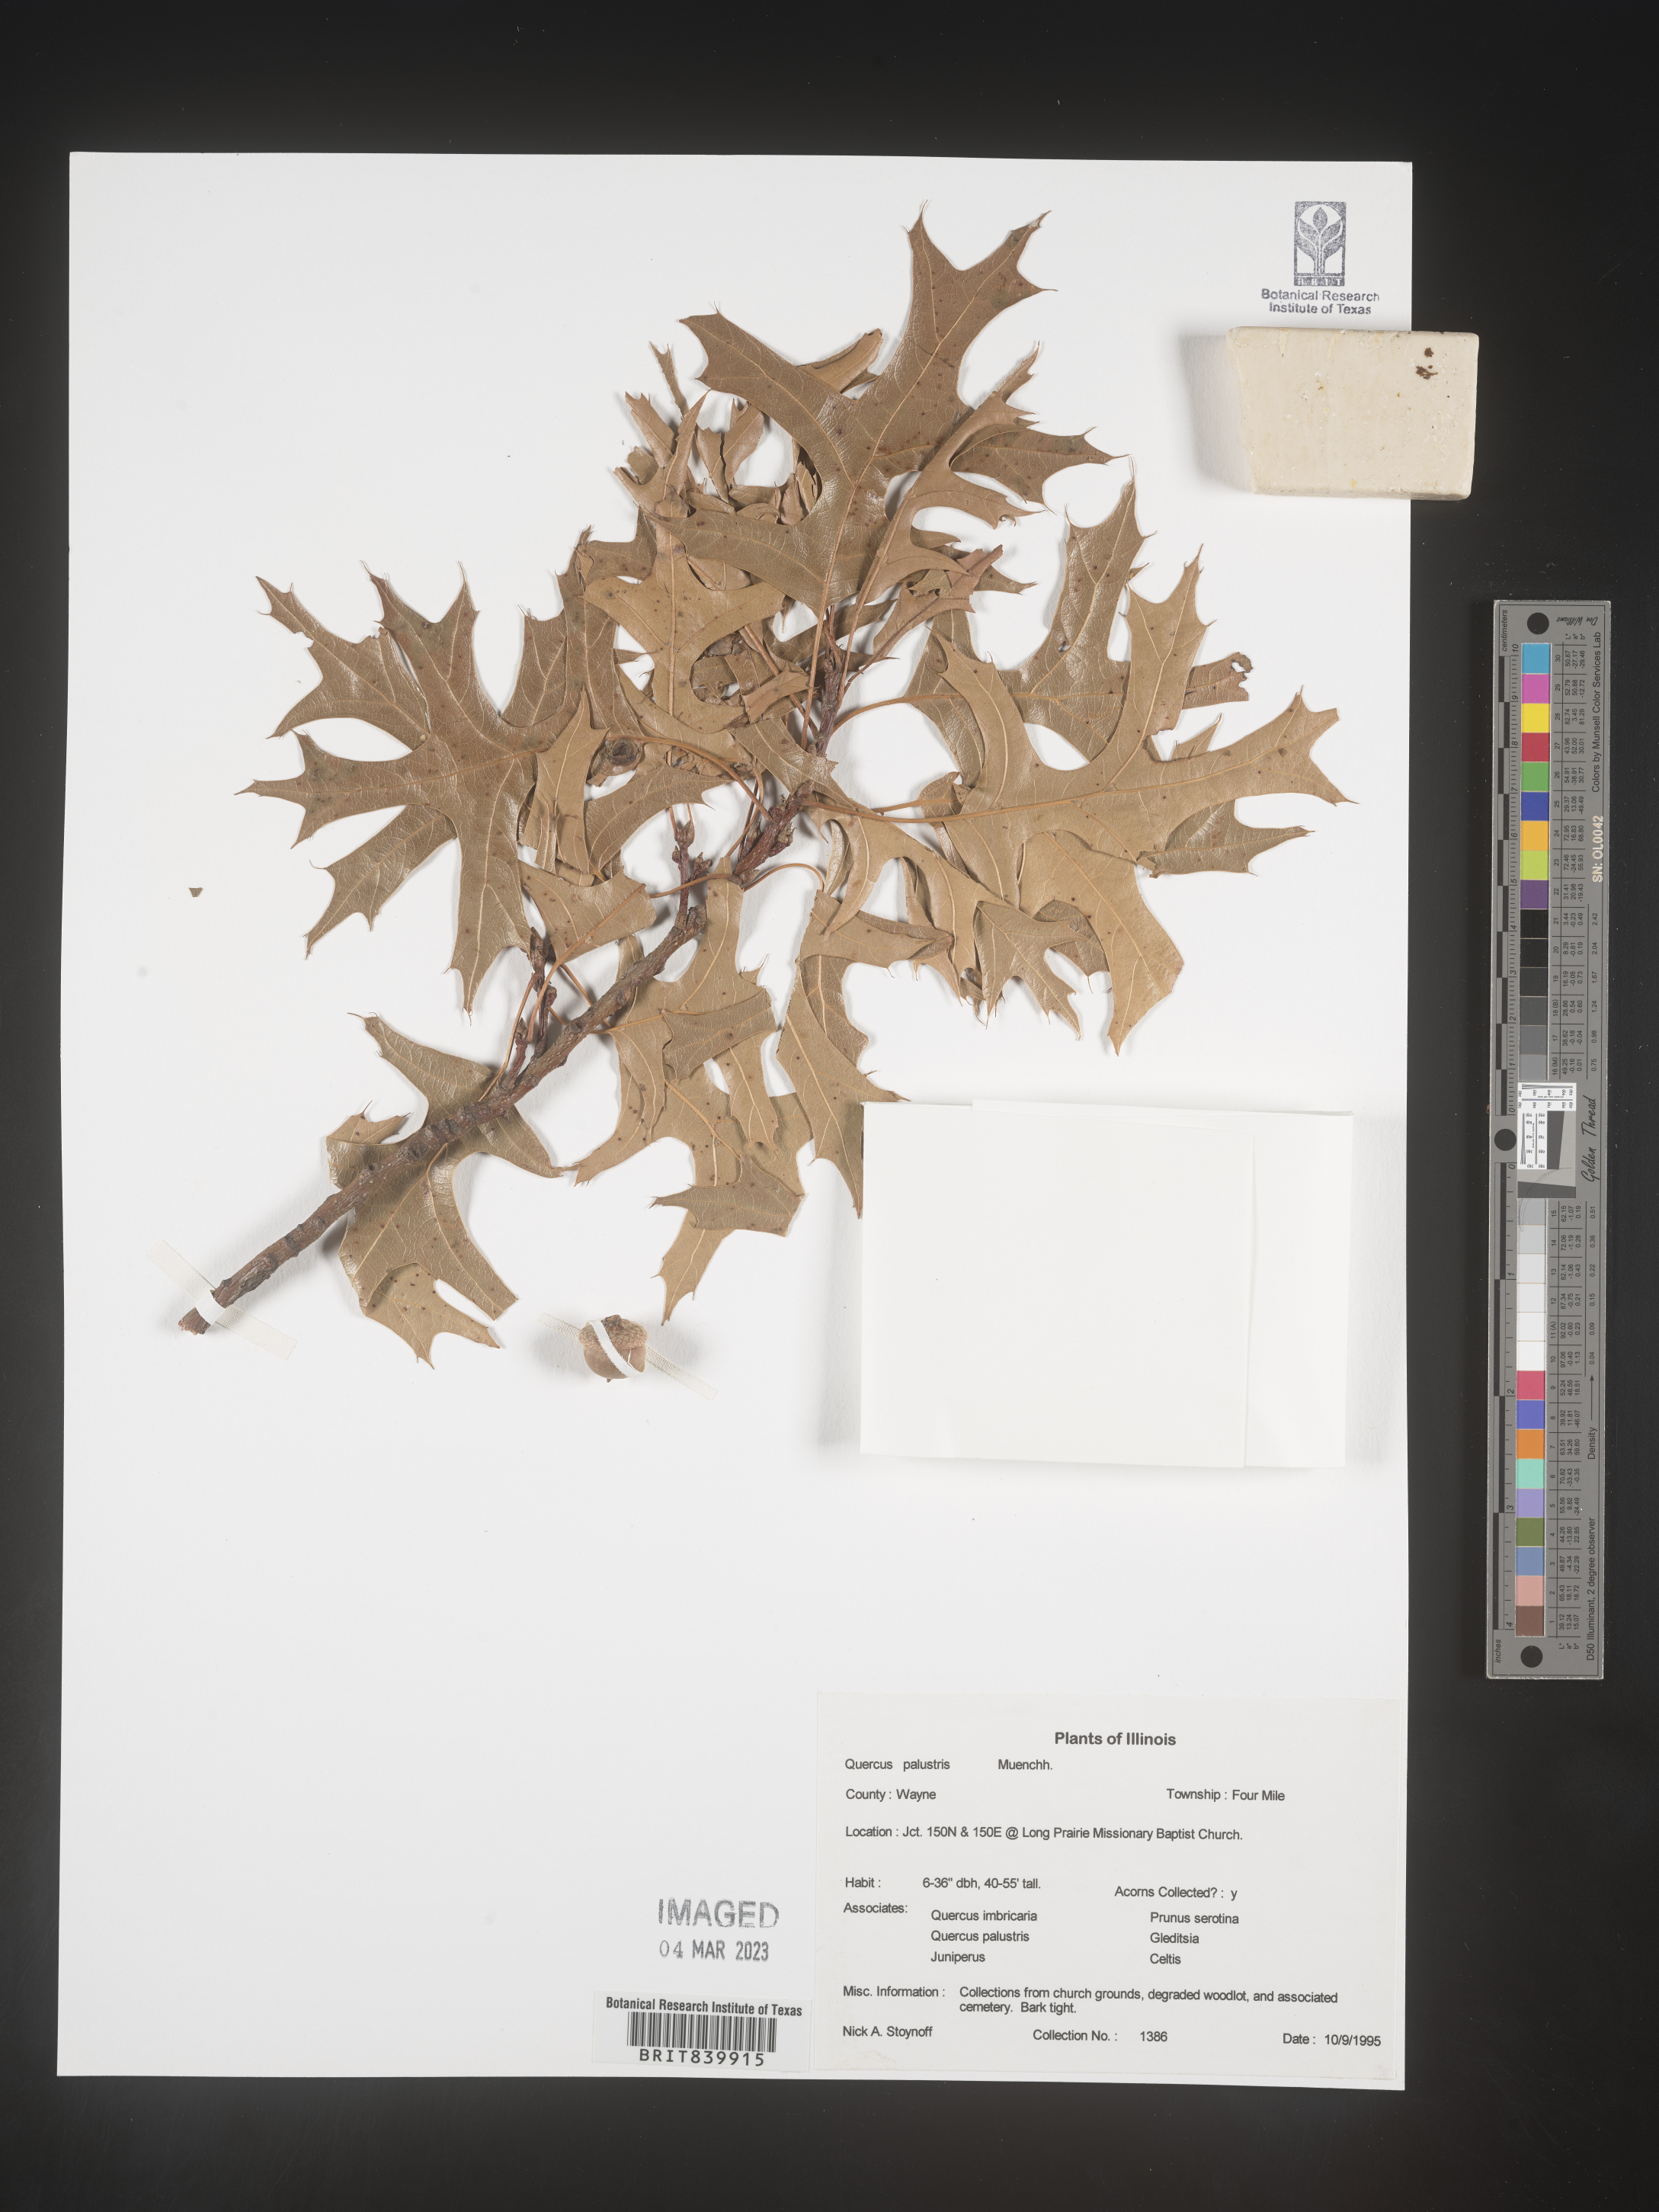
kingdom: Plantae
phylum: Tracheophyta
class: Magnoliopsida
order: Fagales
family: Fagaceae
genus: Quercus
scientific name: Quercus palustris
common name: Pin oak
